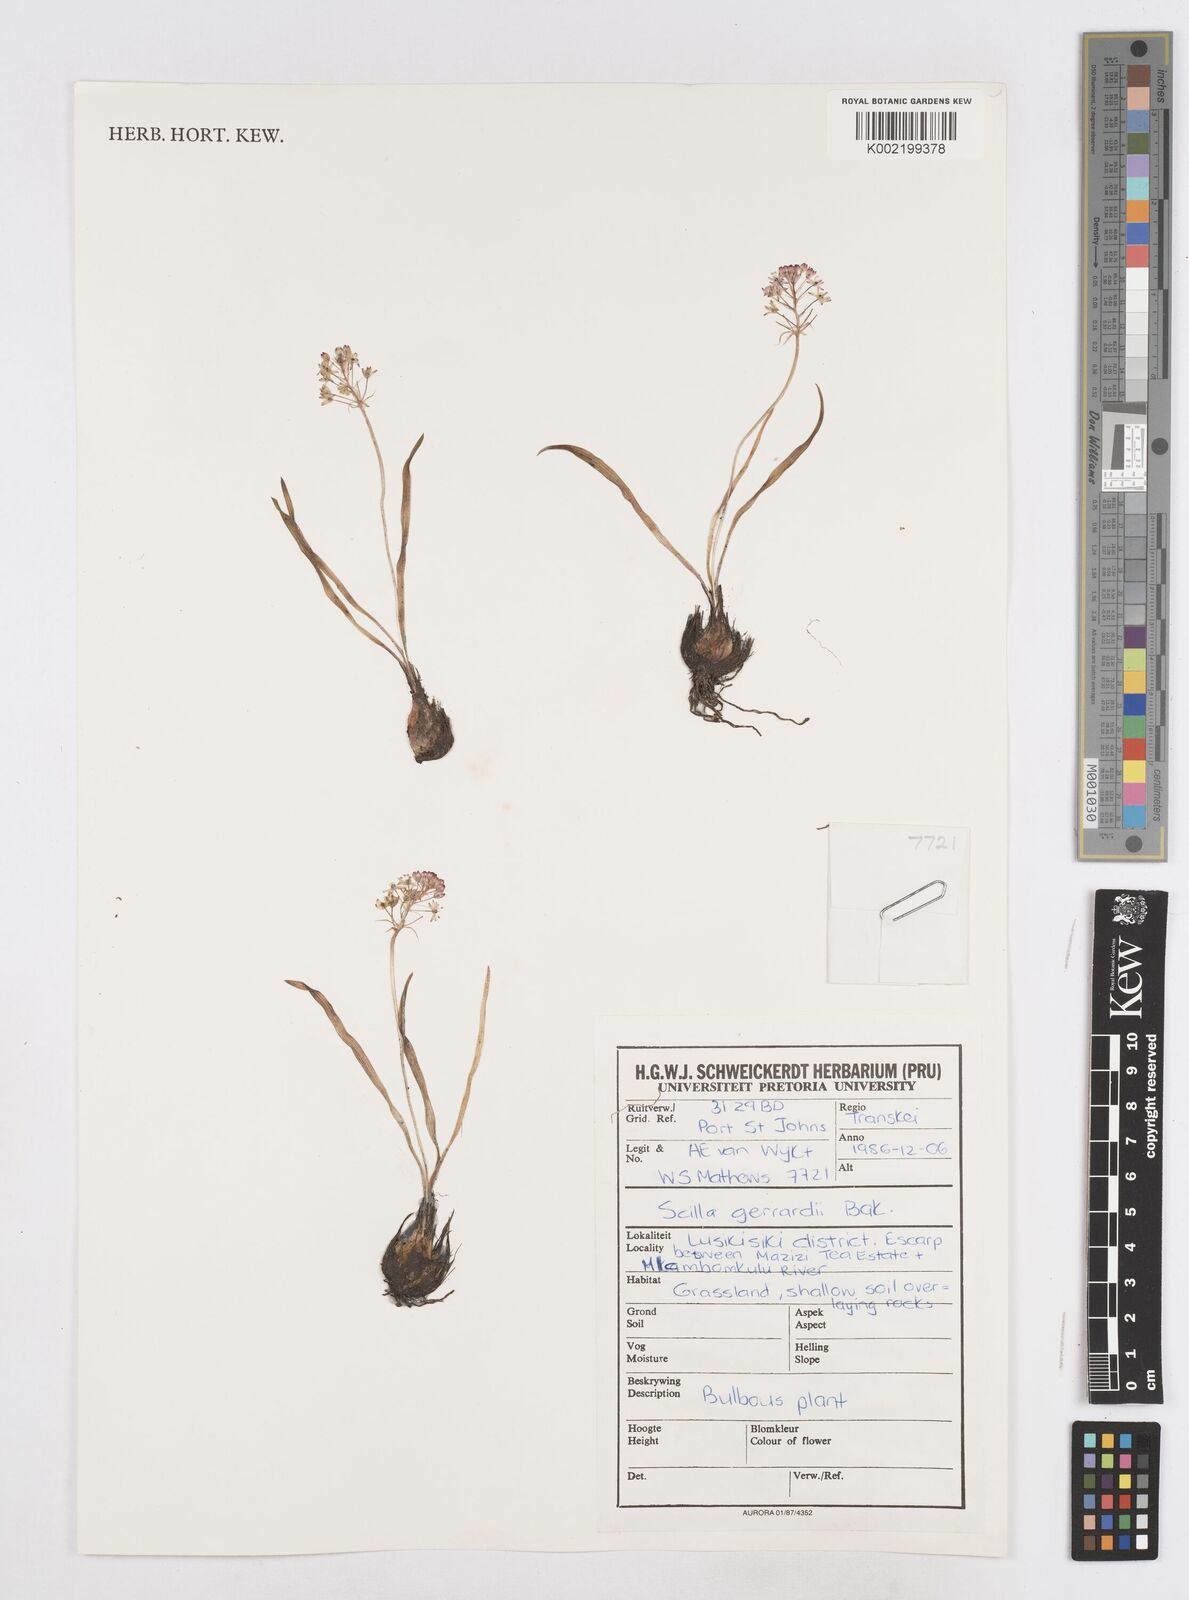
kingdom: Plantae
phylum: Tracheophyta
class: Liliopsida
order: Asparagales
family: Asparagaceae
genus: Schizocarphus
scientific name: Schizocarphus nervosus
